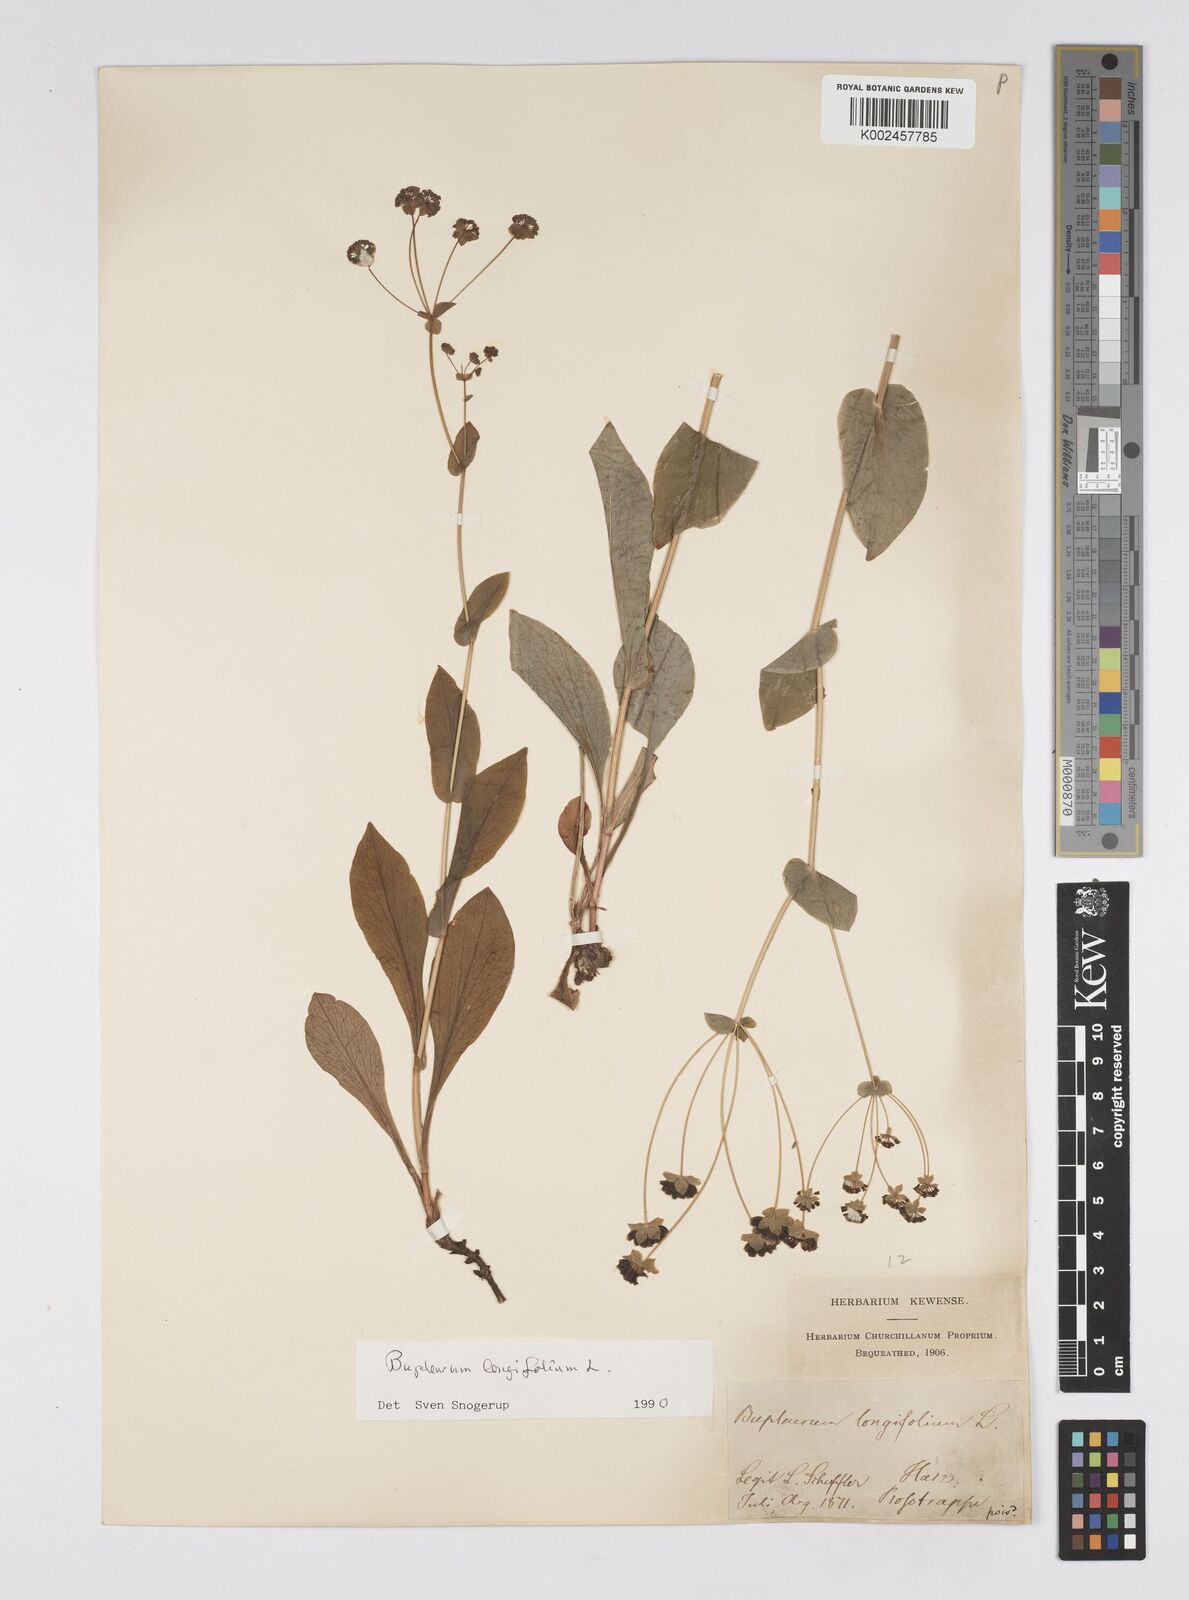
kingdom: Plantae
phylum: Tracheophyta
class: Magnoliopsida
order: Apiales
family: Apiaceae
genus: Bupleurum
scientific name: Bupleurum longifolium
